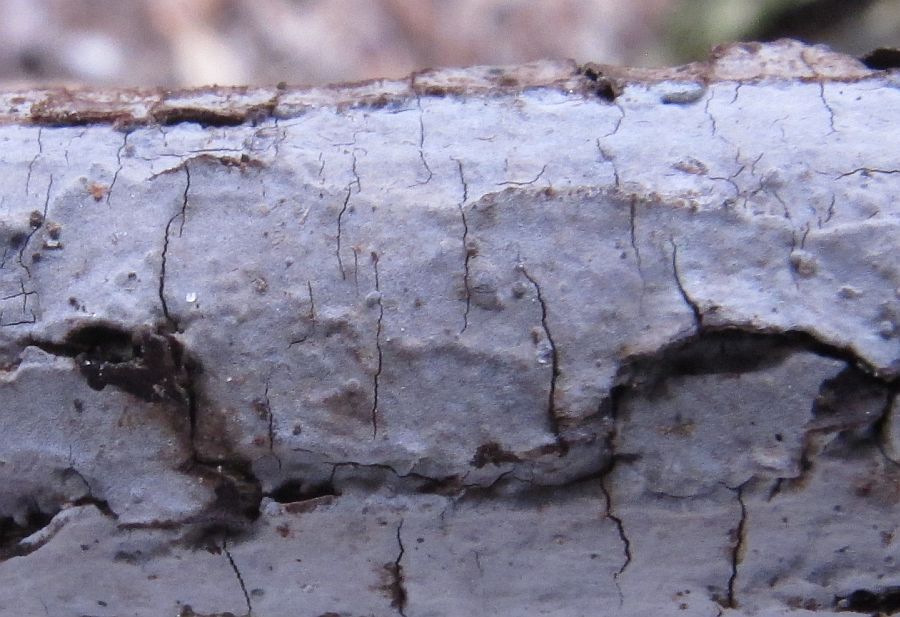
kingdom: Fungi
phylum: Basidiomycota
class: Agaricomycetes
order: Russulales
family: Peniophoraceae
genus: Peniophora
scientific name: Peniophora lycii
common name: grynet voksskind
